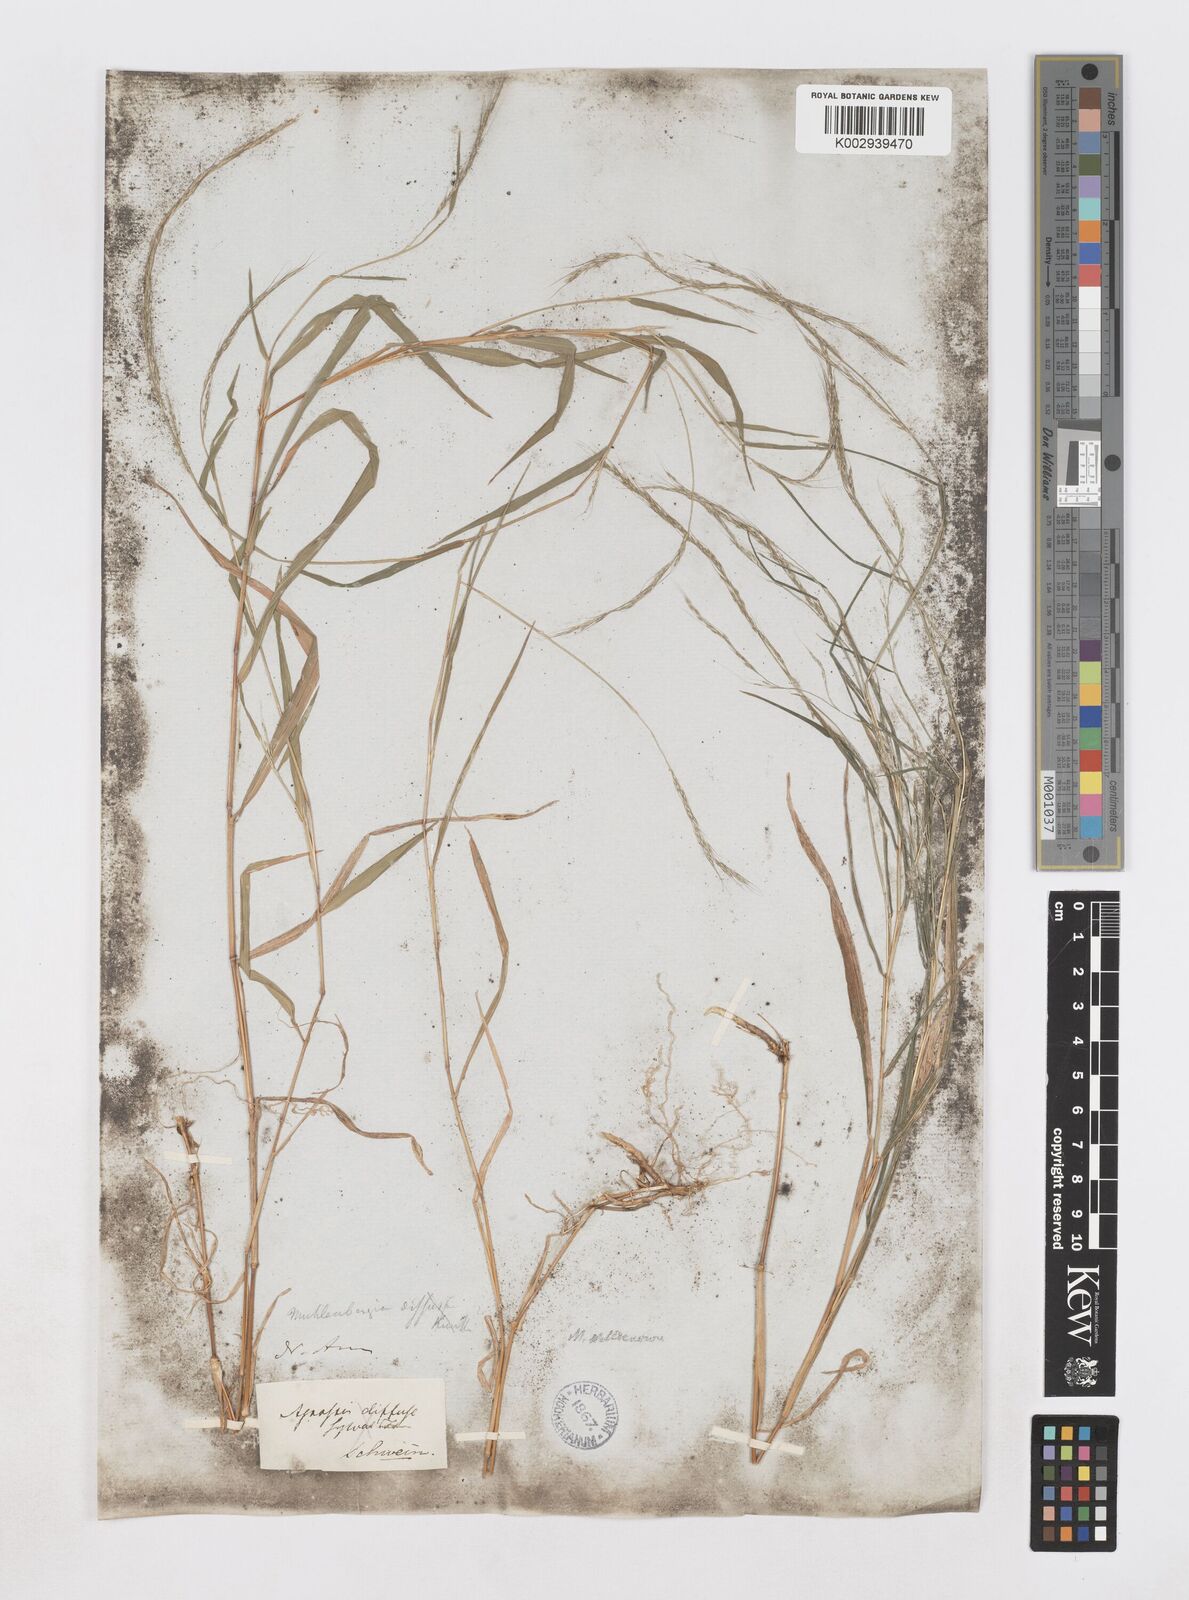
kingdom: Plantae
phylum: Tracheophyta
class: Liliopsida
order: Poales
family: Poaceae
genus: Muhlenbergia
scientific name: Muhlenbergia tenuiflora
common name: Slender muhly
